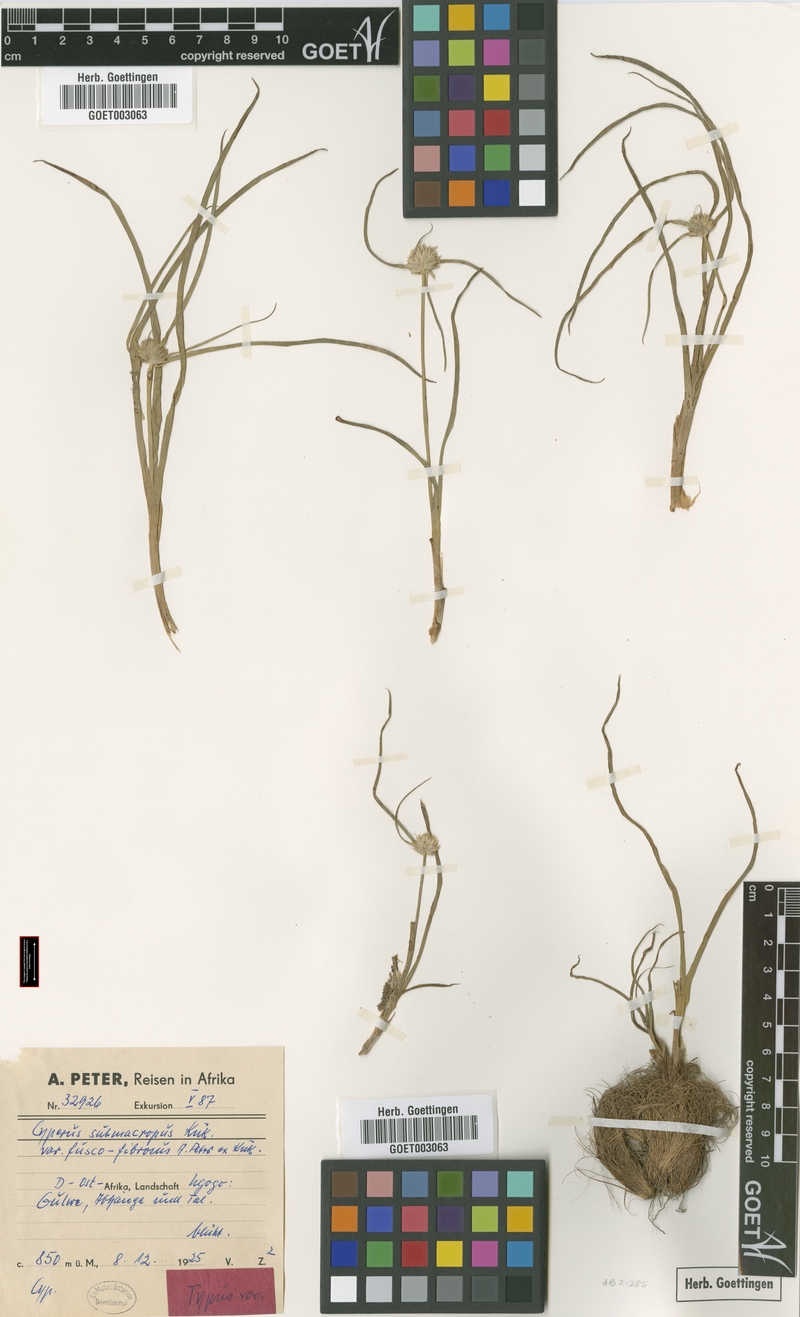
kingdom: Plantae
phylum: Tracheophyta
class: Liliopsida
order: Poales
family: Cyperaceae
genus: Cyperus
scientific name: Cyperus mollipes
